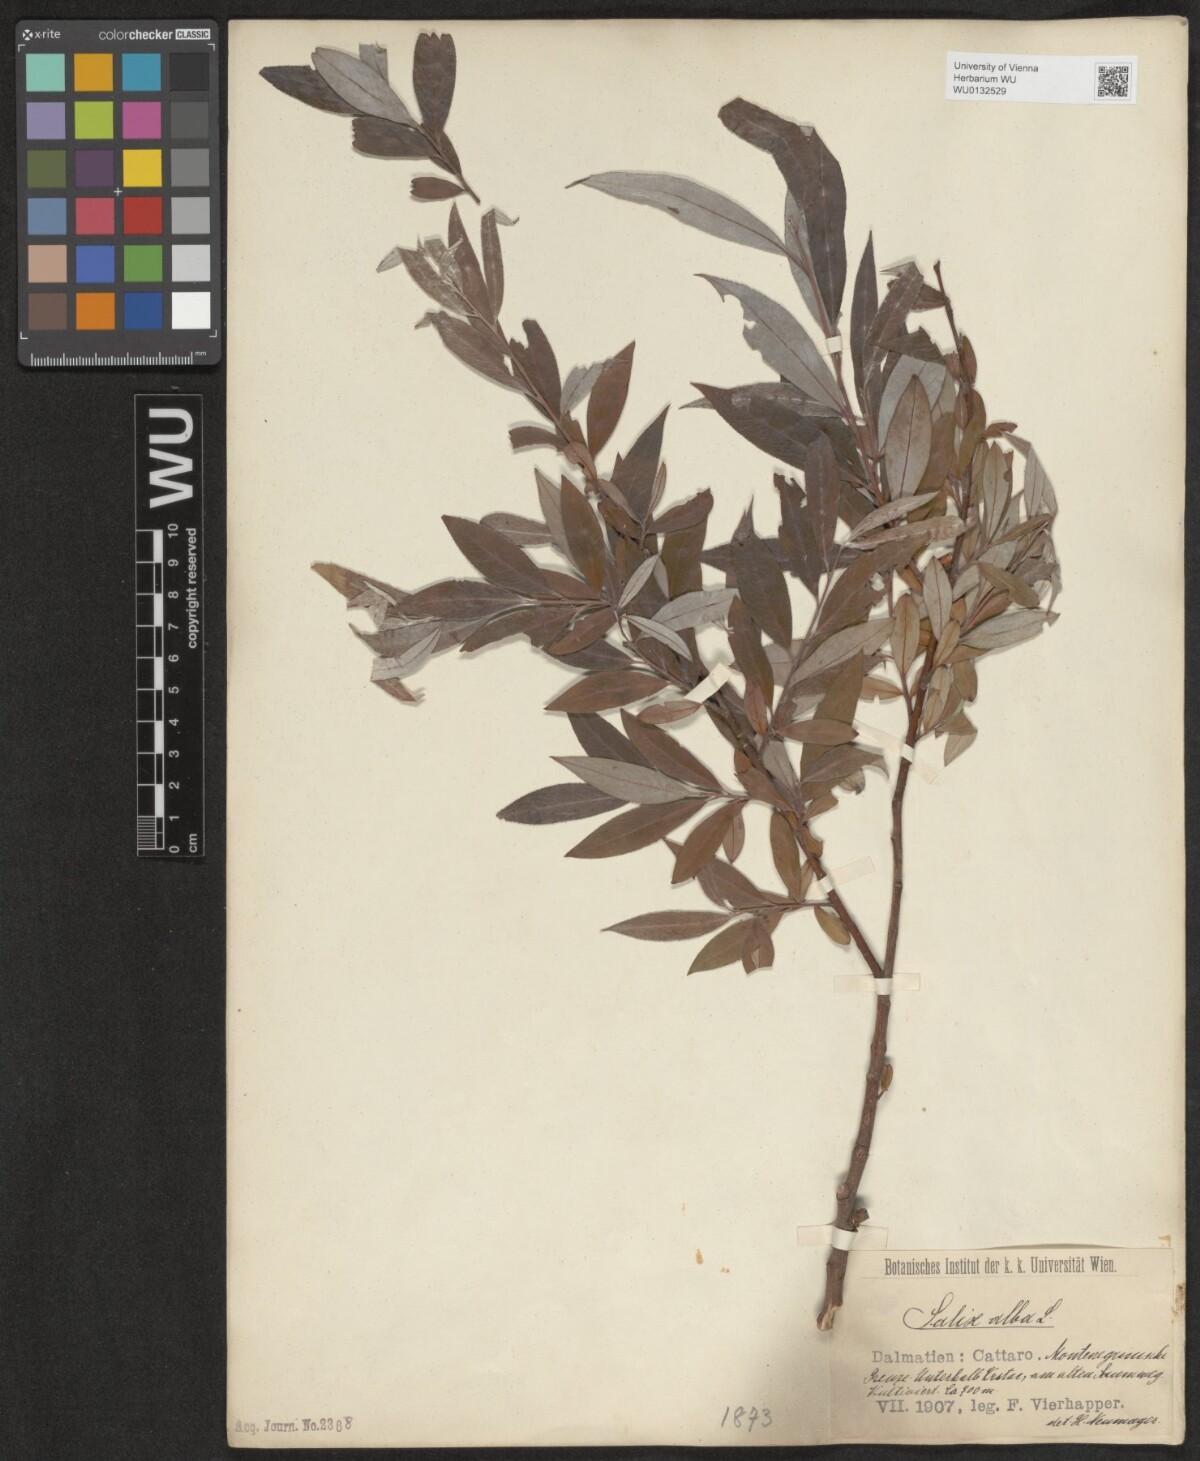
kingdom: Plantae
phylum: Tracheophyta
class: Magnoliopsida
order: Malpighiales
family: Salicaceae
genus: Salix
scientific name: Salix alba
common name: White willow
